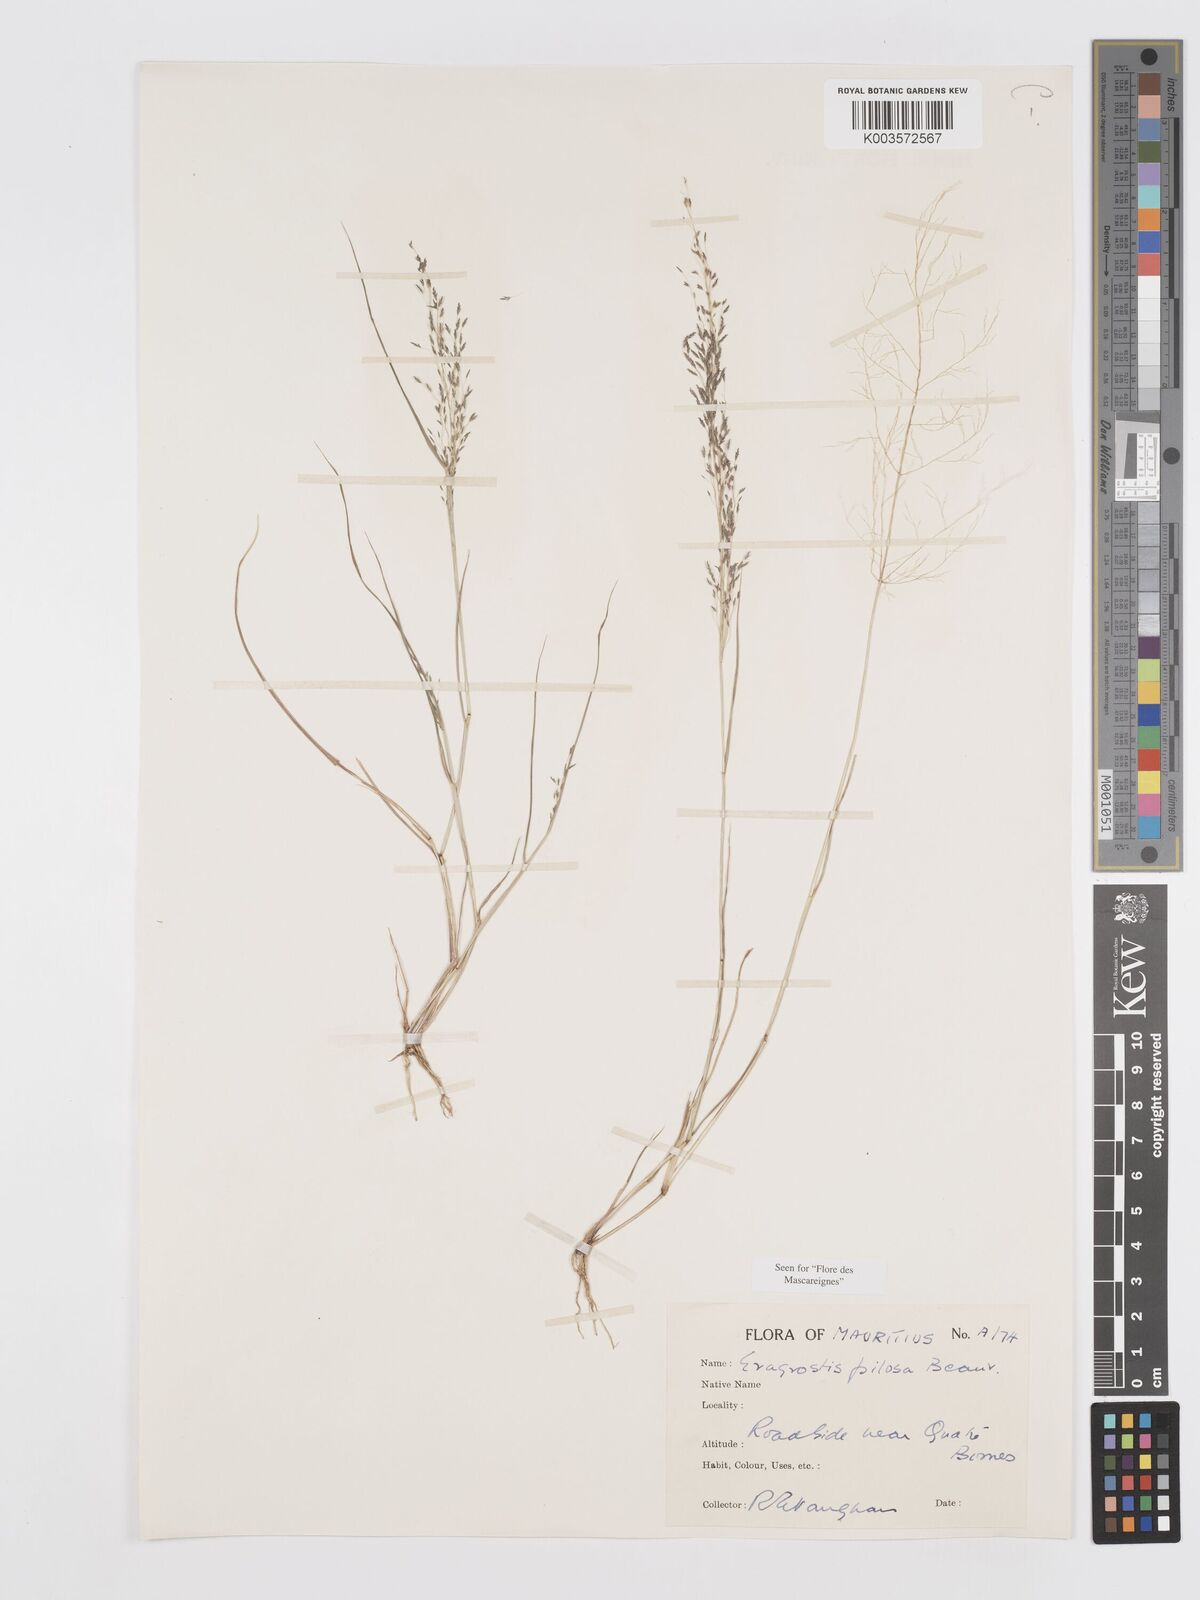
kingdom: Plantae
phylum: Tracheophyta
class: Liliopsida
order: Poales
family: Poaceae
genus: Eragrostis
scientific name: Eragrostis pilosa
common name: Indian lovegrass
